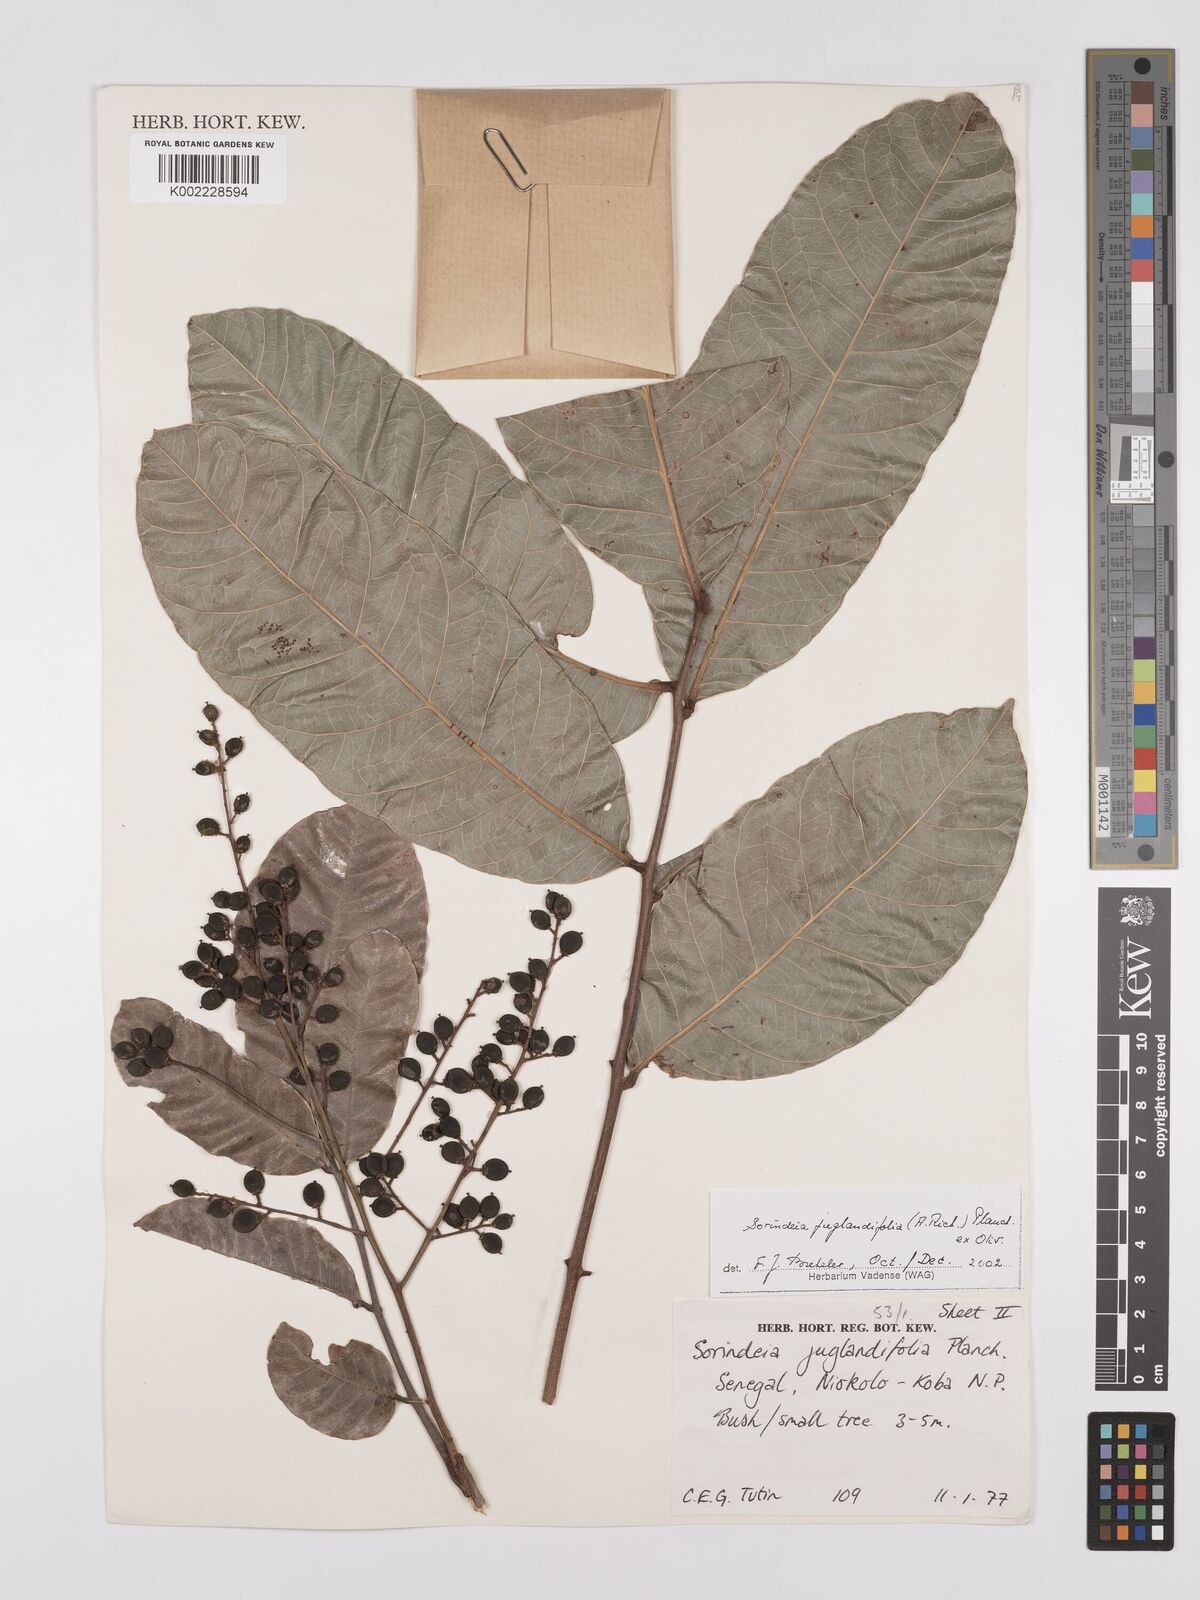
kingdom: Plantae
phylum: Tracheophyta
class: Magnoliopsida
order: Sapindales
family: Anacardiaceae
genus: Sorindeia
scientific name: Sorindeia juglandifolia
